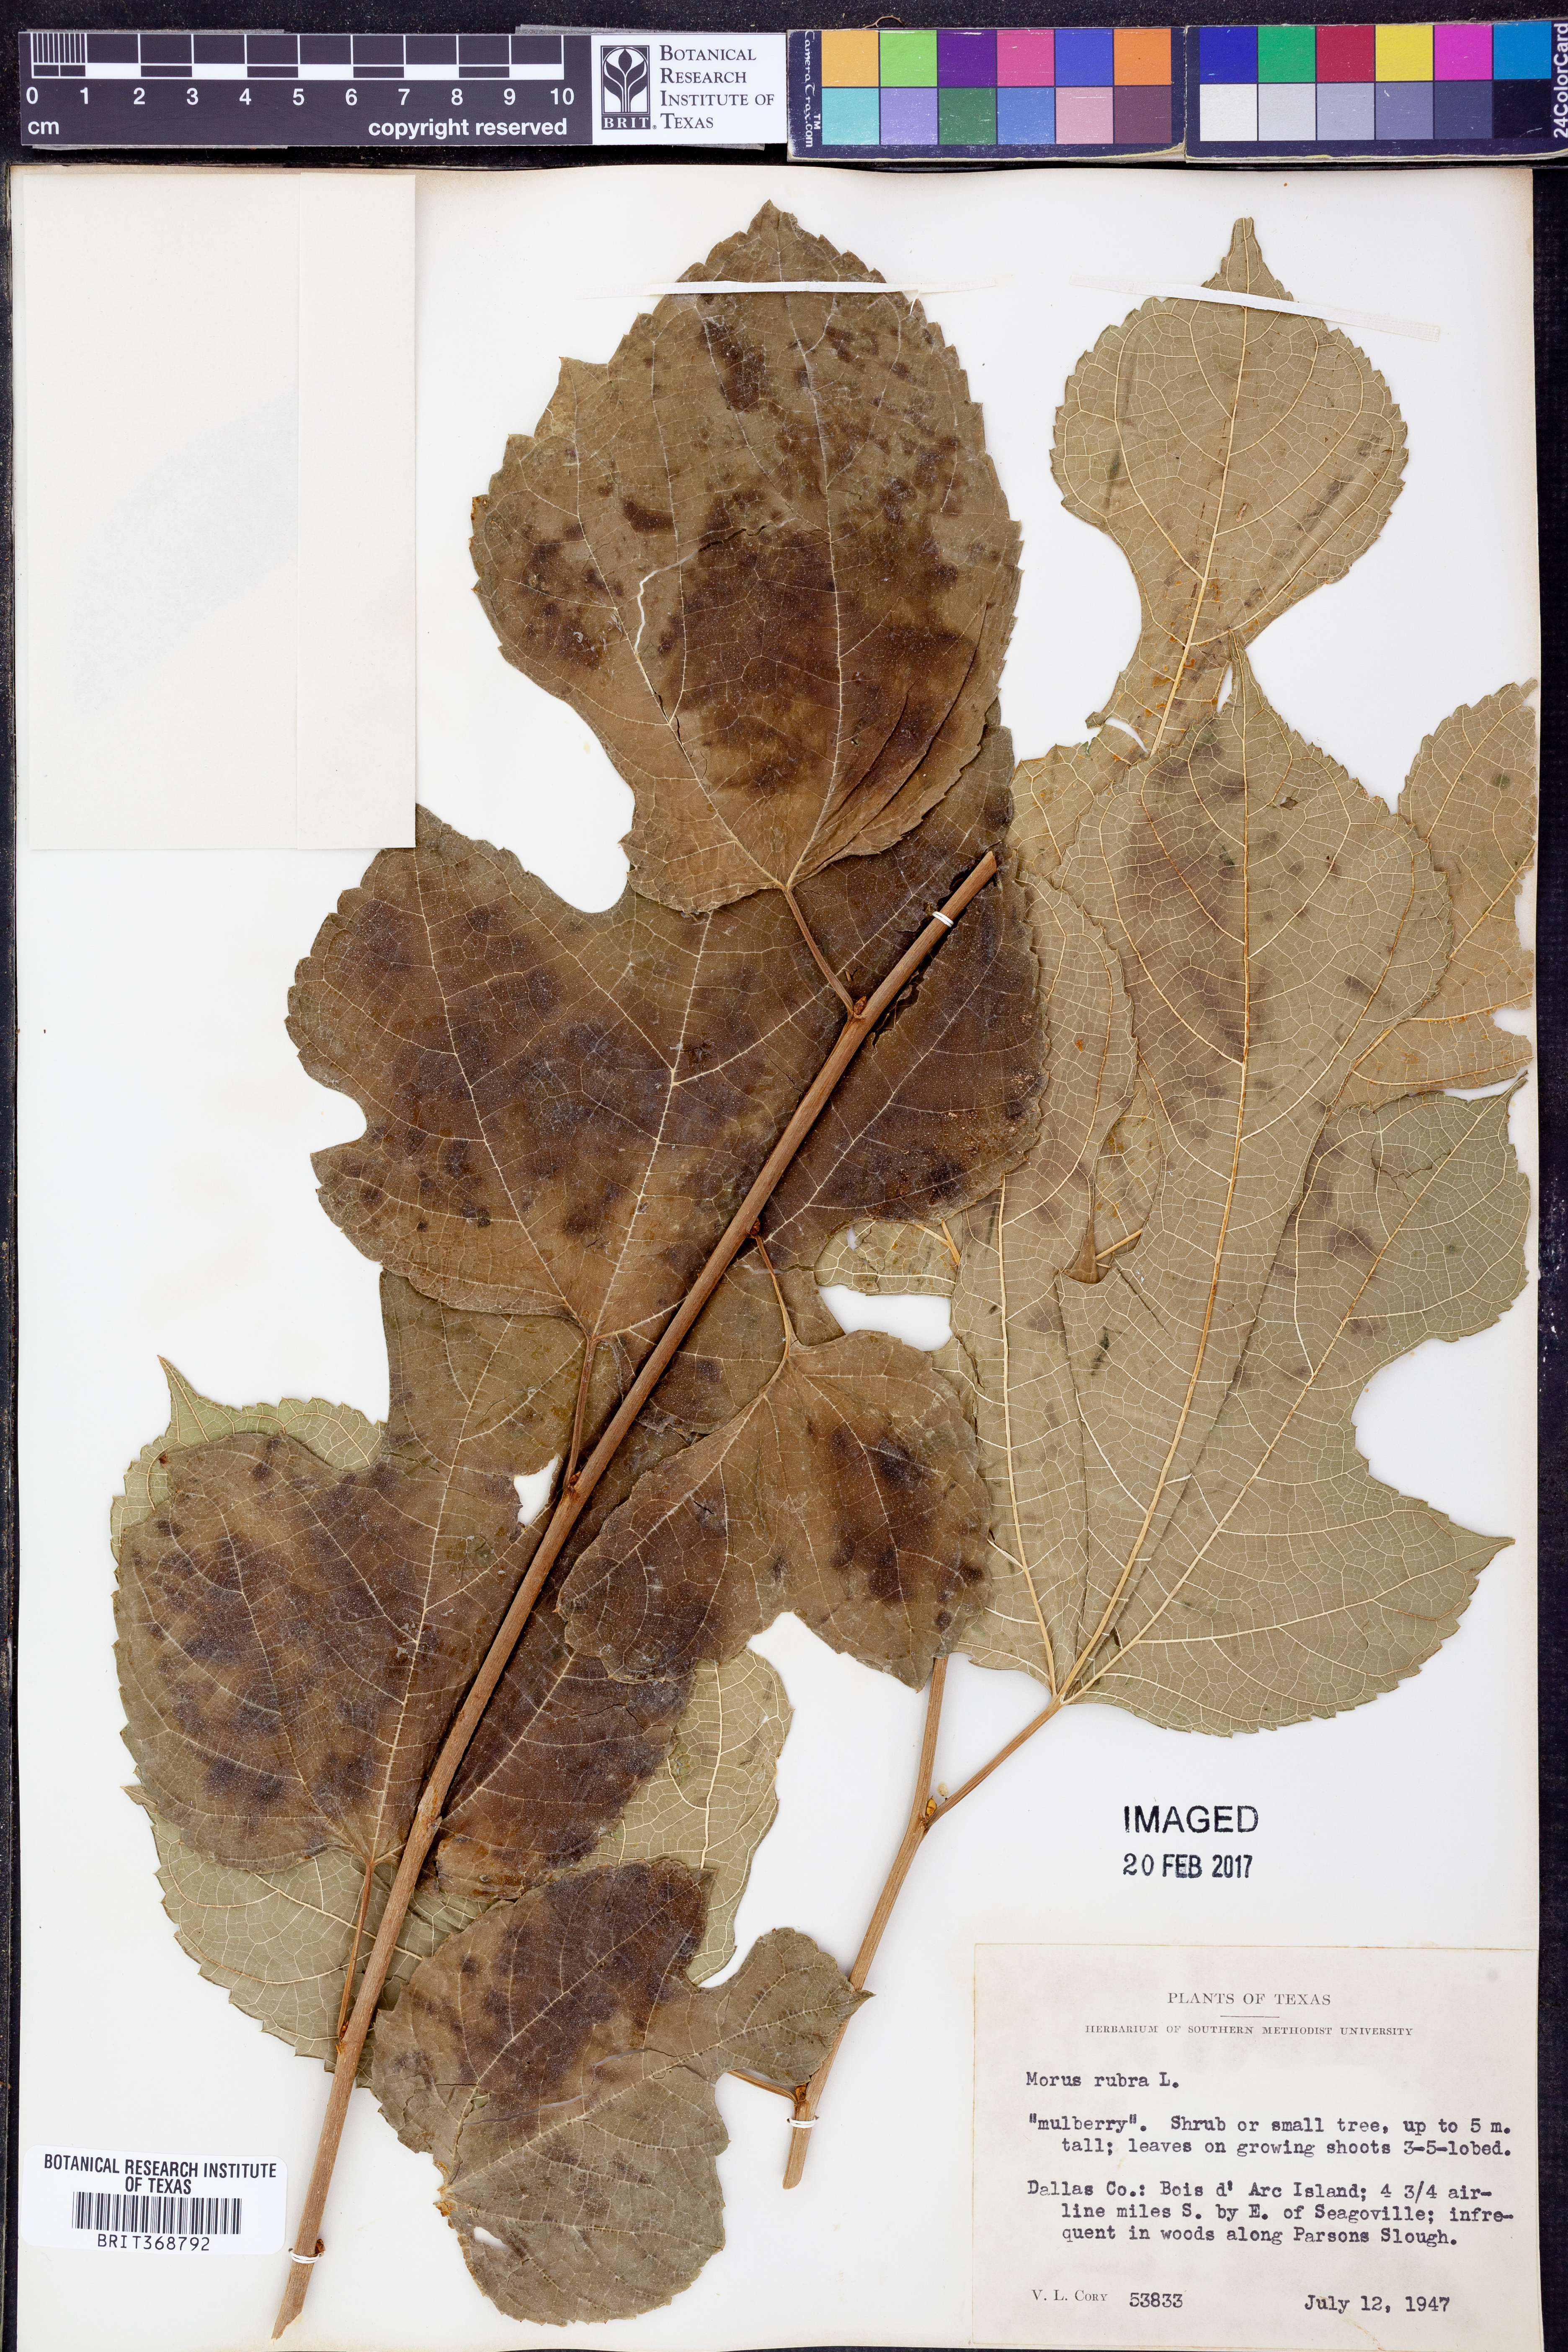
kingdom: Plantae
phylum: Tracheophyta
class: Magnoliopsida
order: Rosales
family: Moraceae
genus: Morus
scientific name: Morus rubra
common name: Red mulberry
